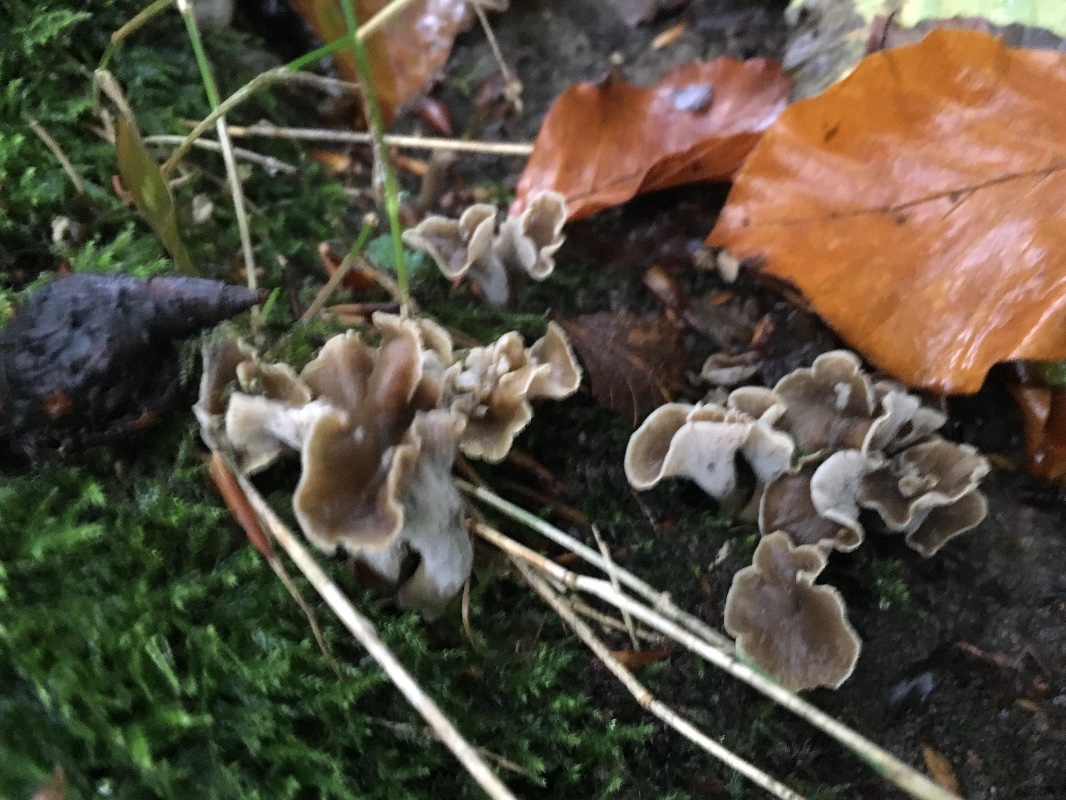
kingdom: Fungi
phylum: Basidiomycota
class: Agaricomycetes
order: Cantharellales
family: Hydnaceae
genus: Craterellus
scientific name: Craterellus undulatus
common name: liden kantarel
